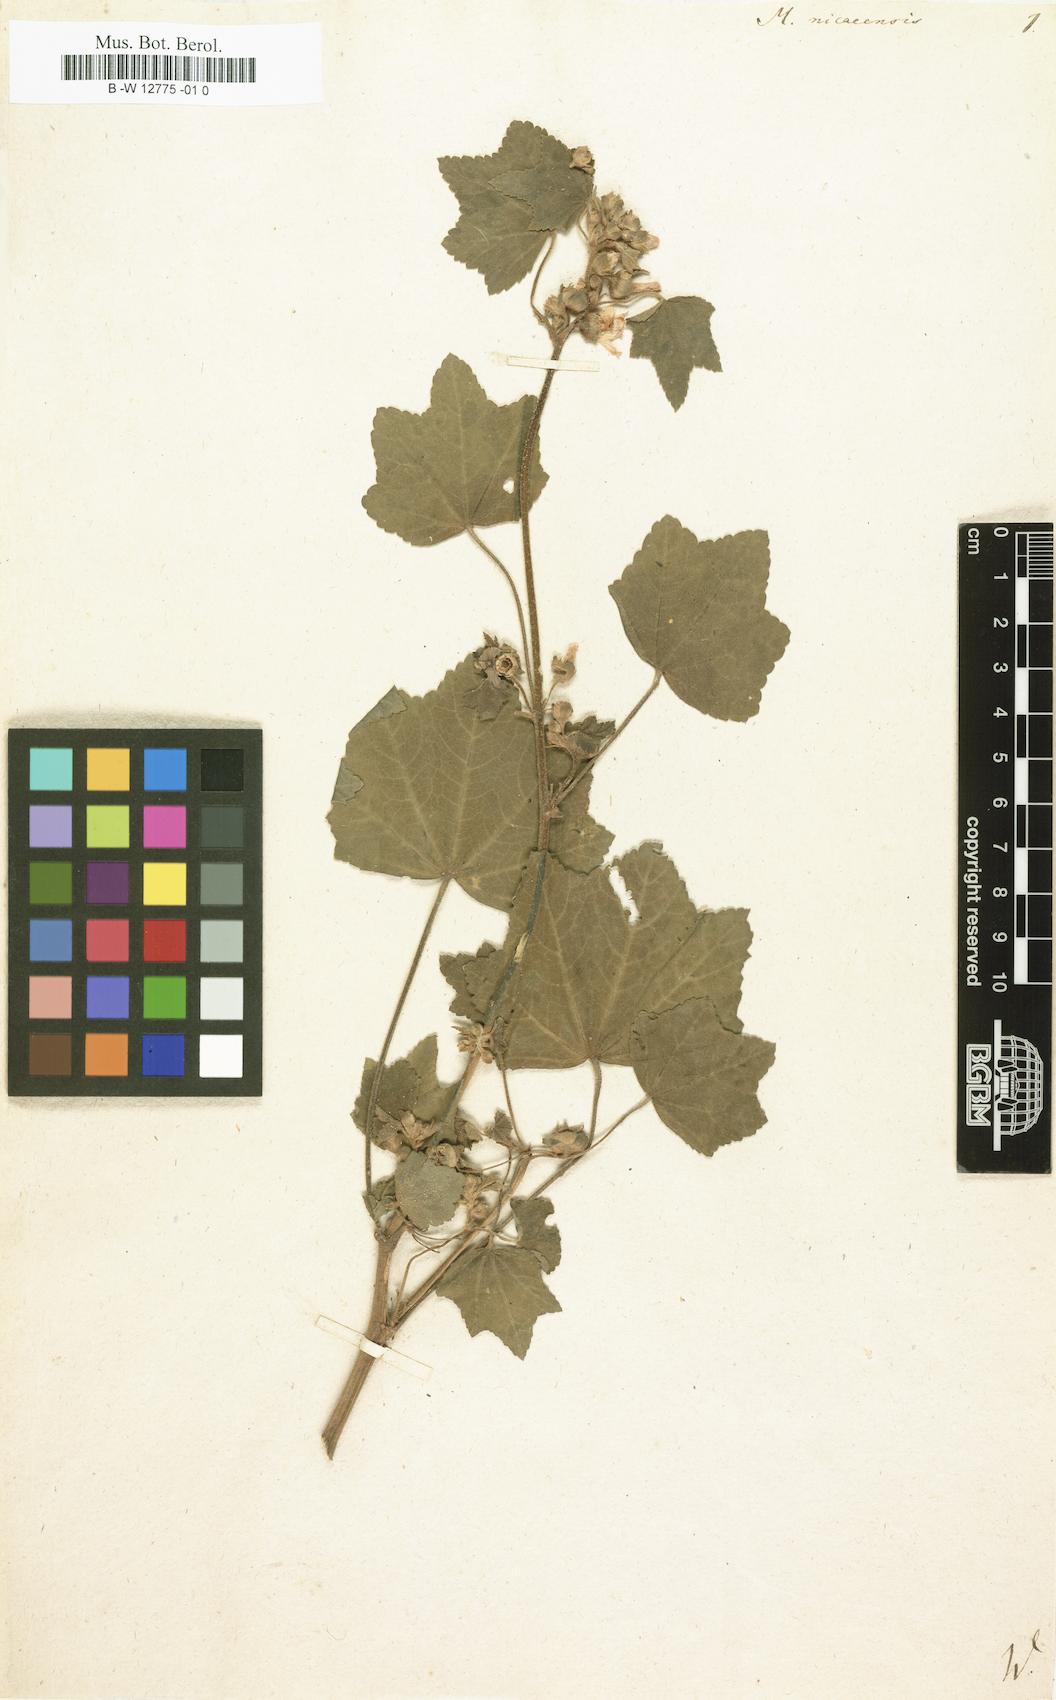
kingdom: Plantae
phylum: Tracheophyta
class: Magnoliopsida
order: Malvales
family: Malvaceae
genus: Malva
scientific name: Malva nicaeensis
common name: French mallow
